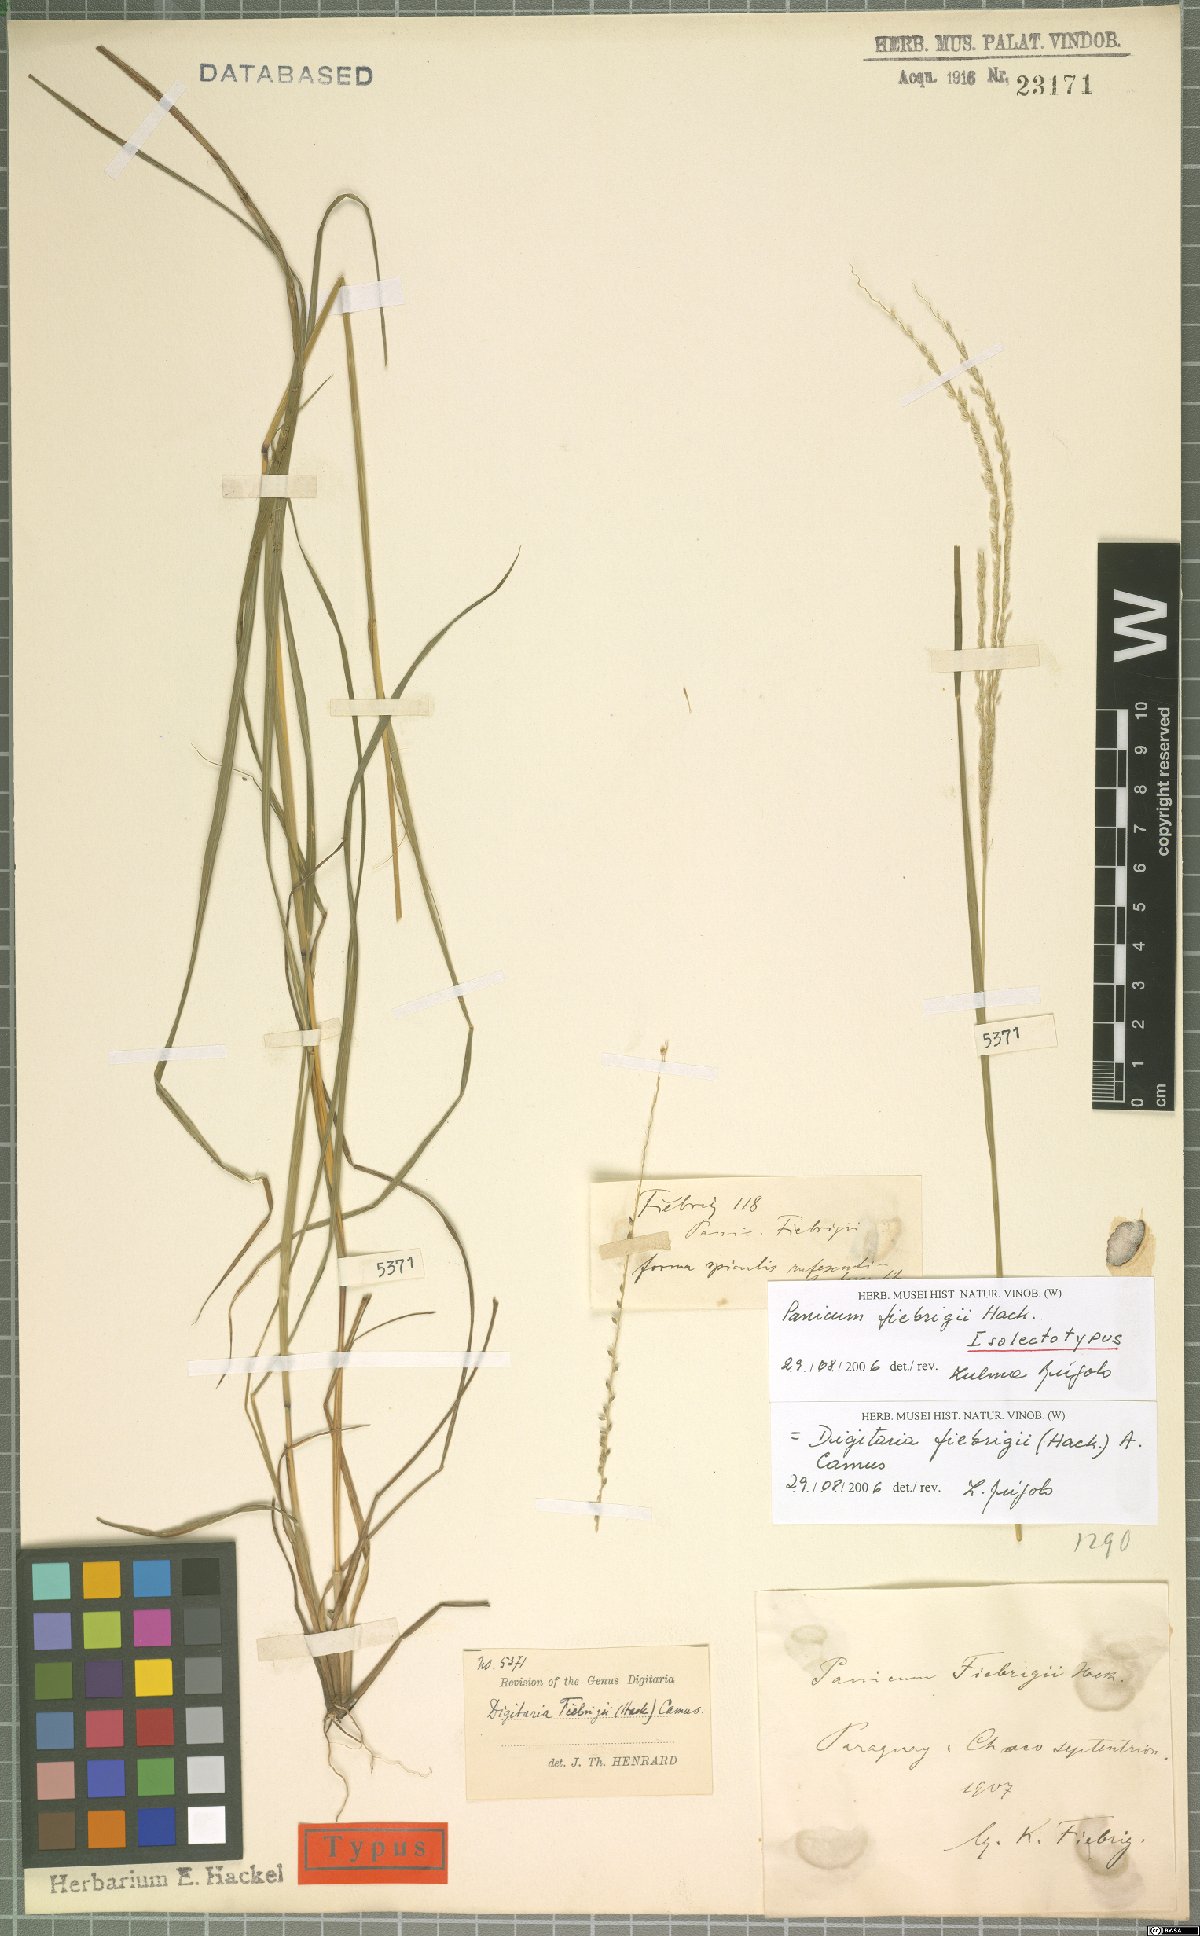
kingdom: Plantae
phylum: Tracheophyta
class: Liliopsida
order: Poales
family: Poaceae
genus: Digitaria
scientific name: Digitaria fiebrigii
